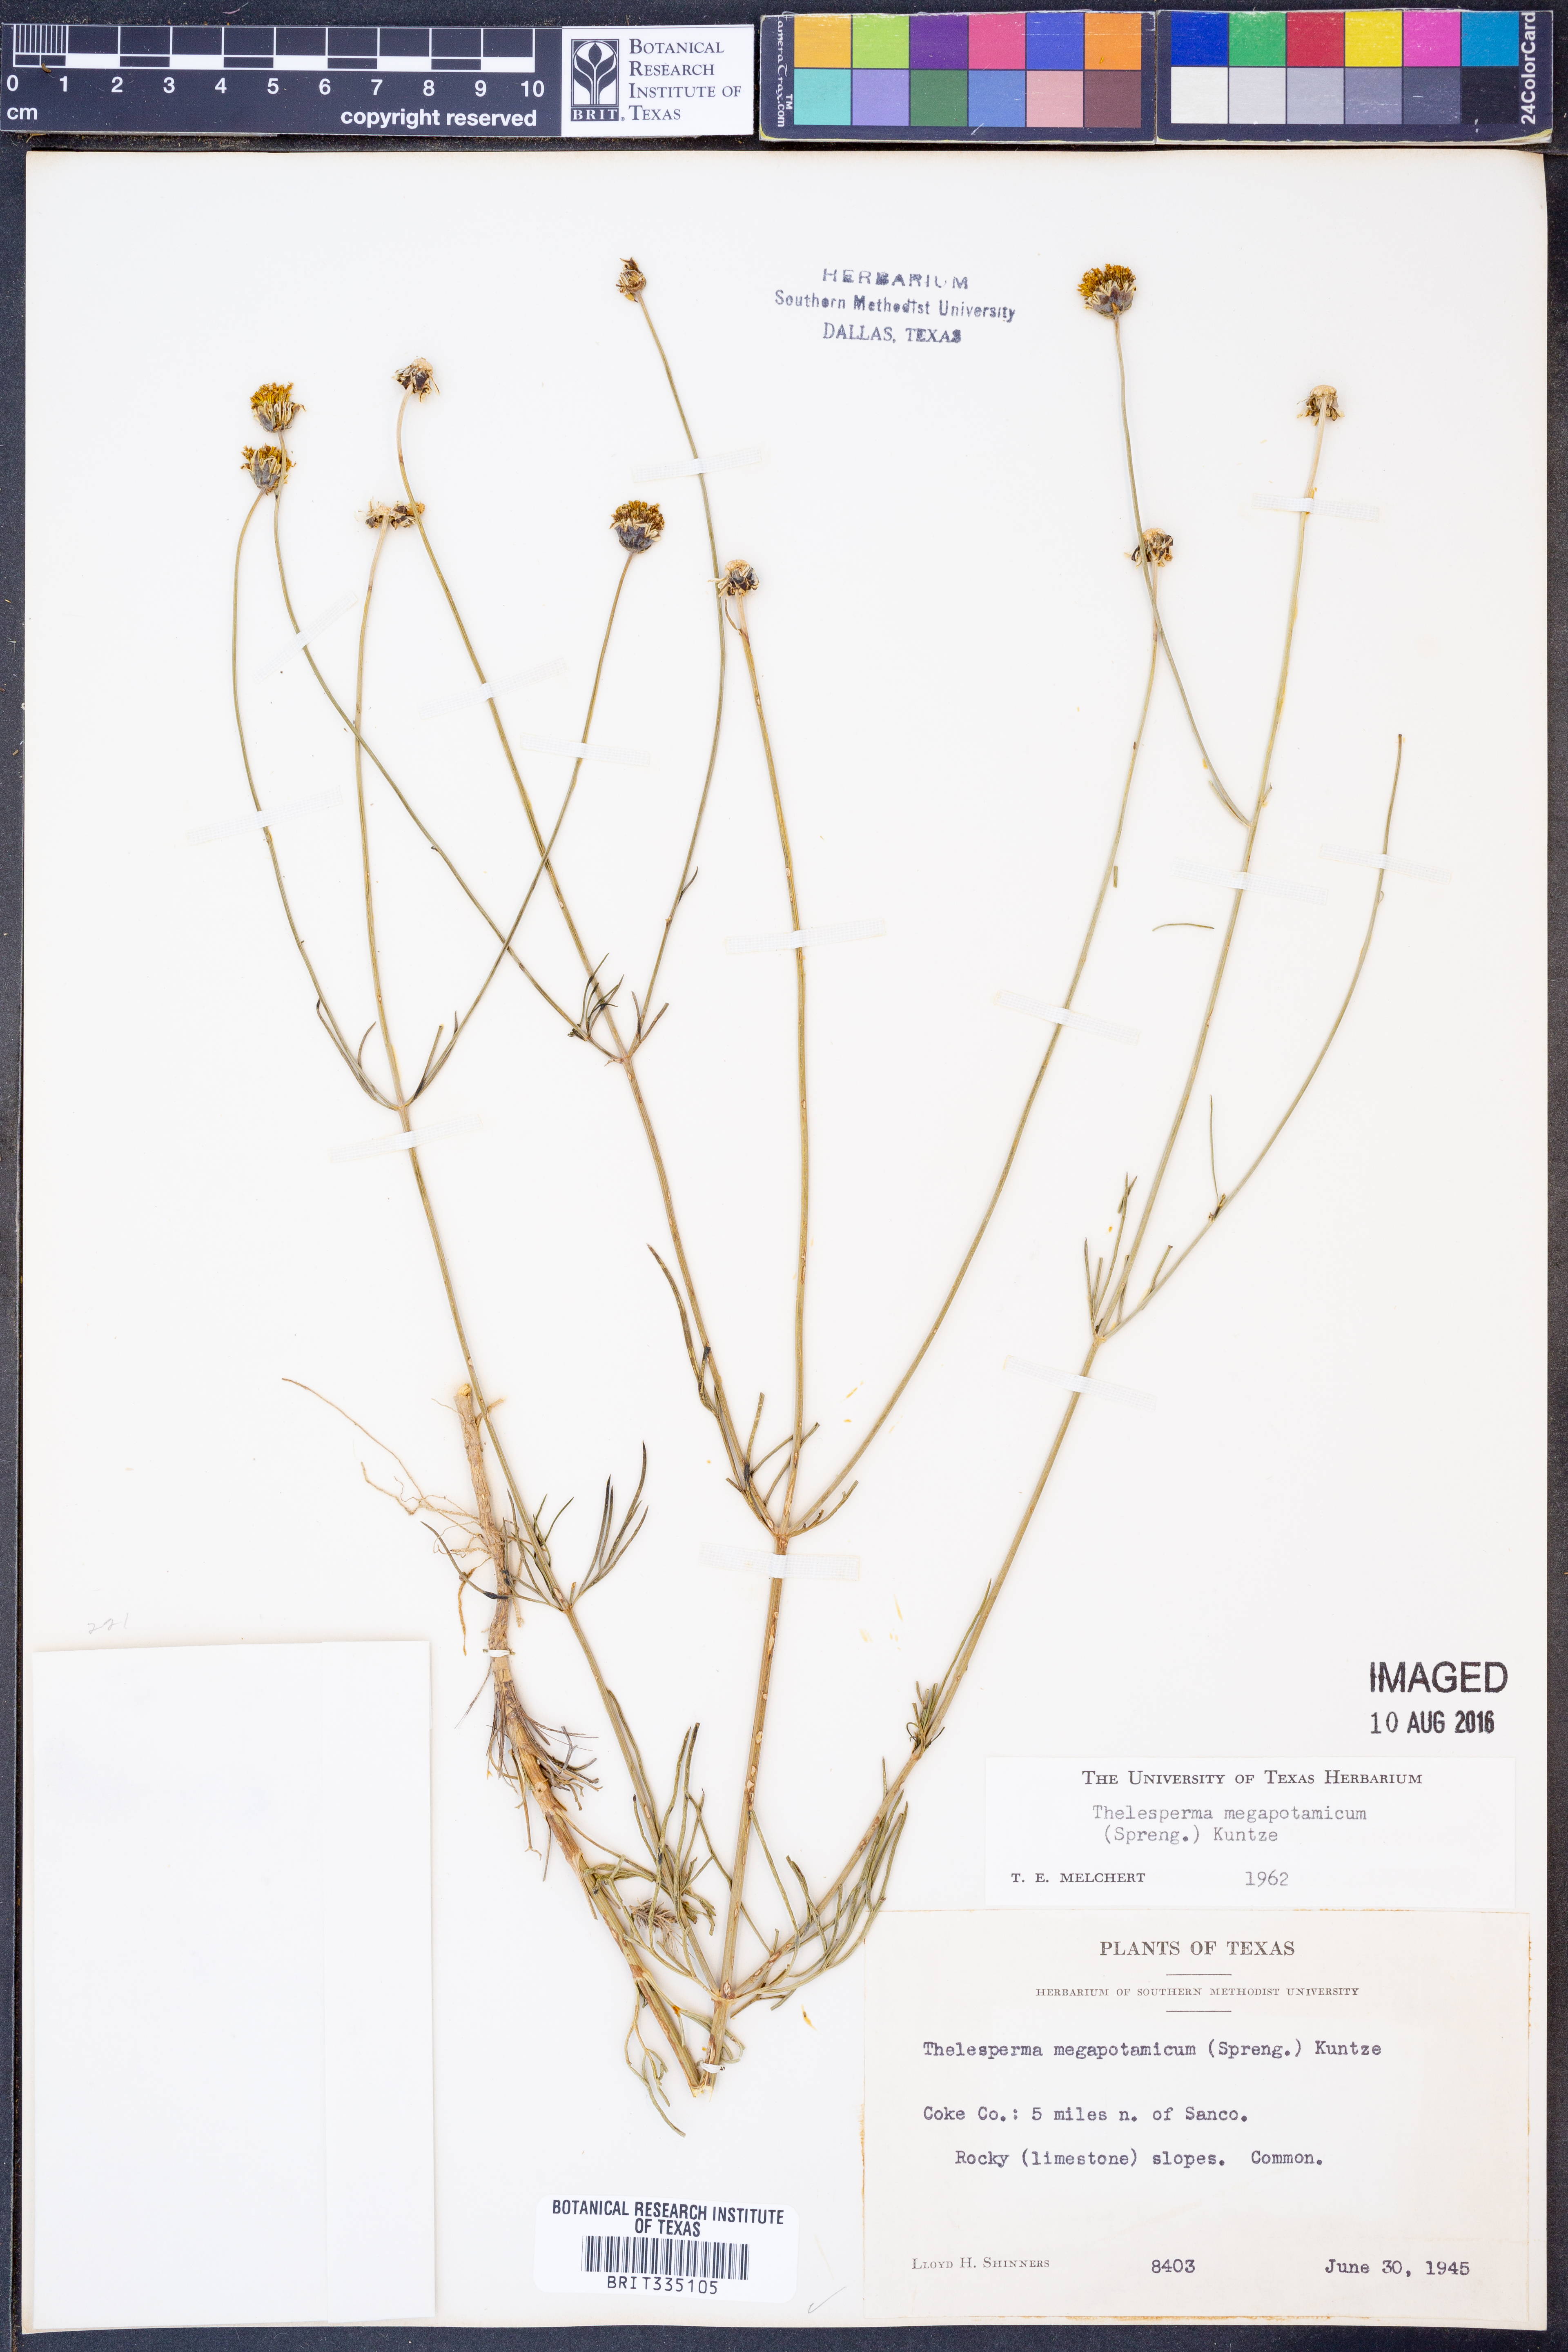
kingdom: Plantae
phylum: Tracheophyta
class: Magnoliopsida
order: Asterales
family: Asteraceae
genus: Thelesperma
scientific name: Thelesperma megapotamicum
